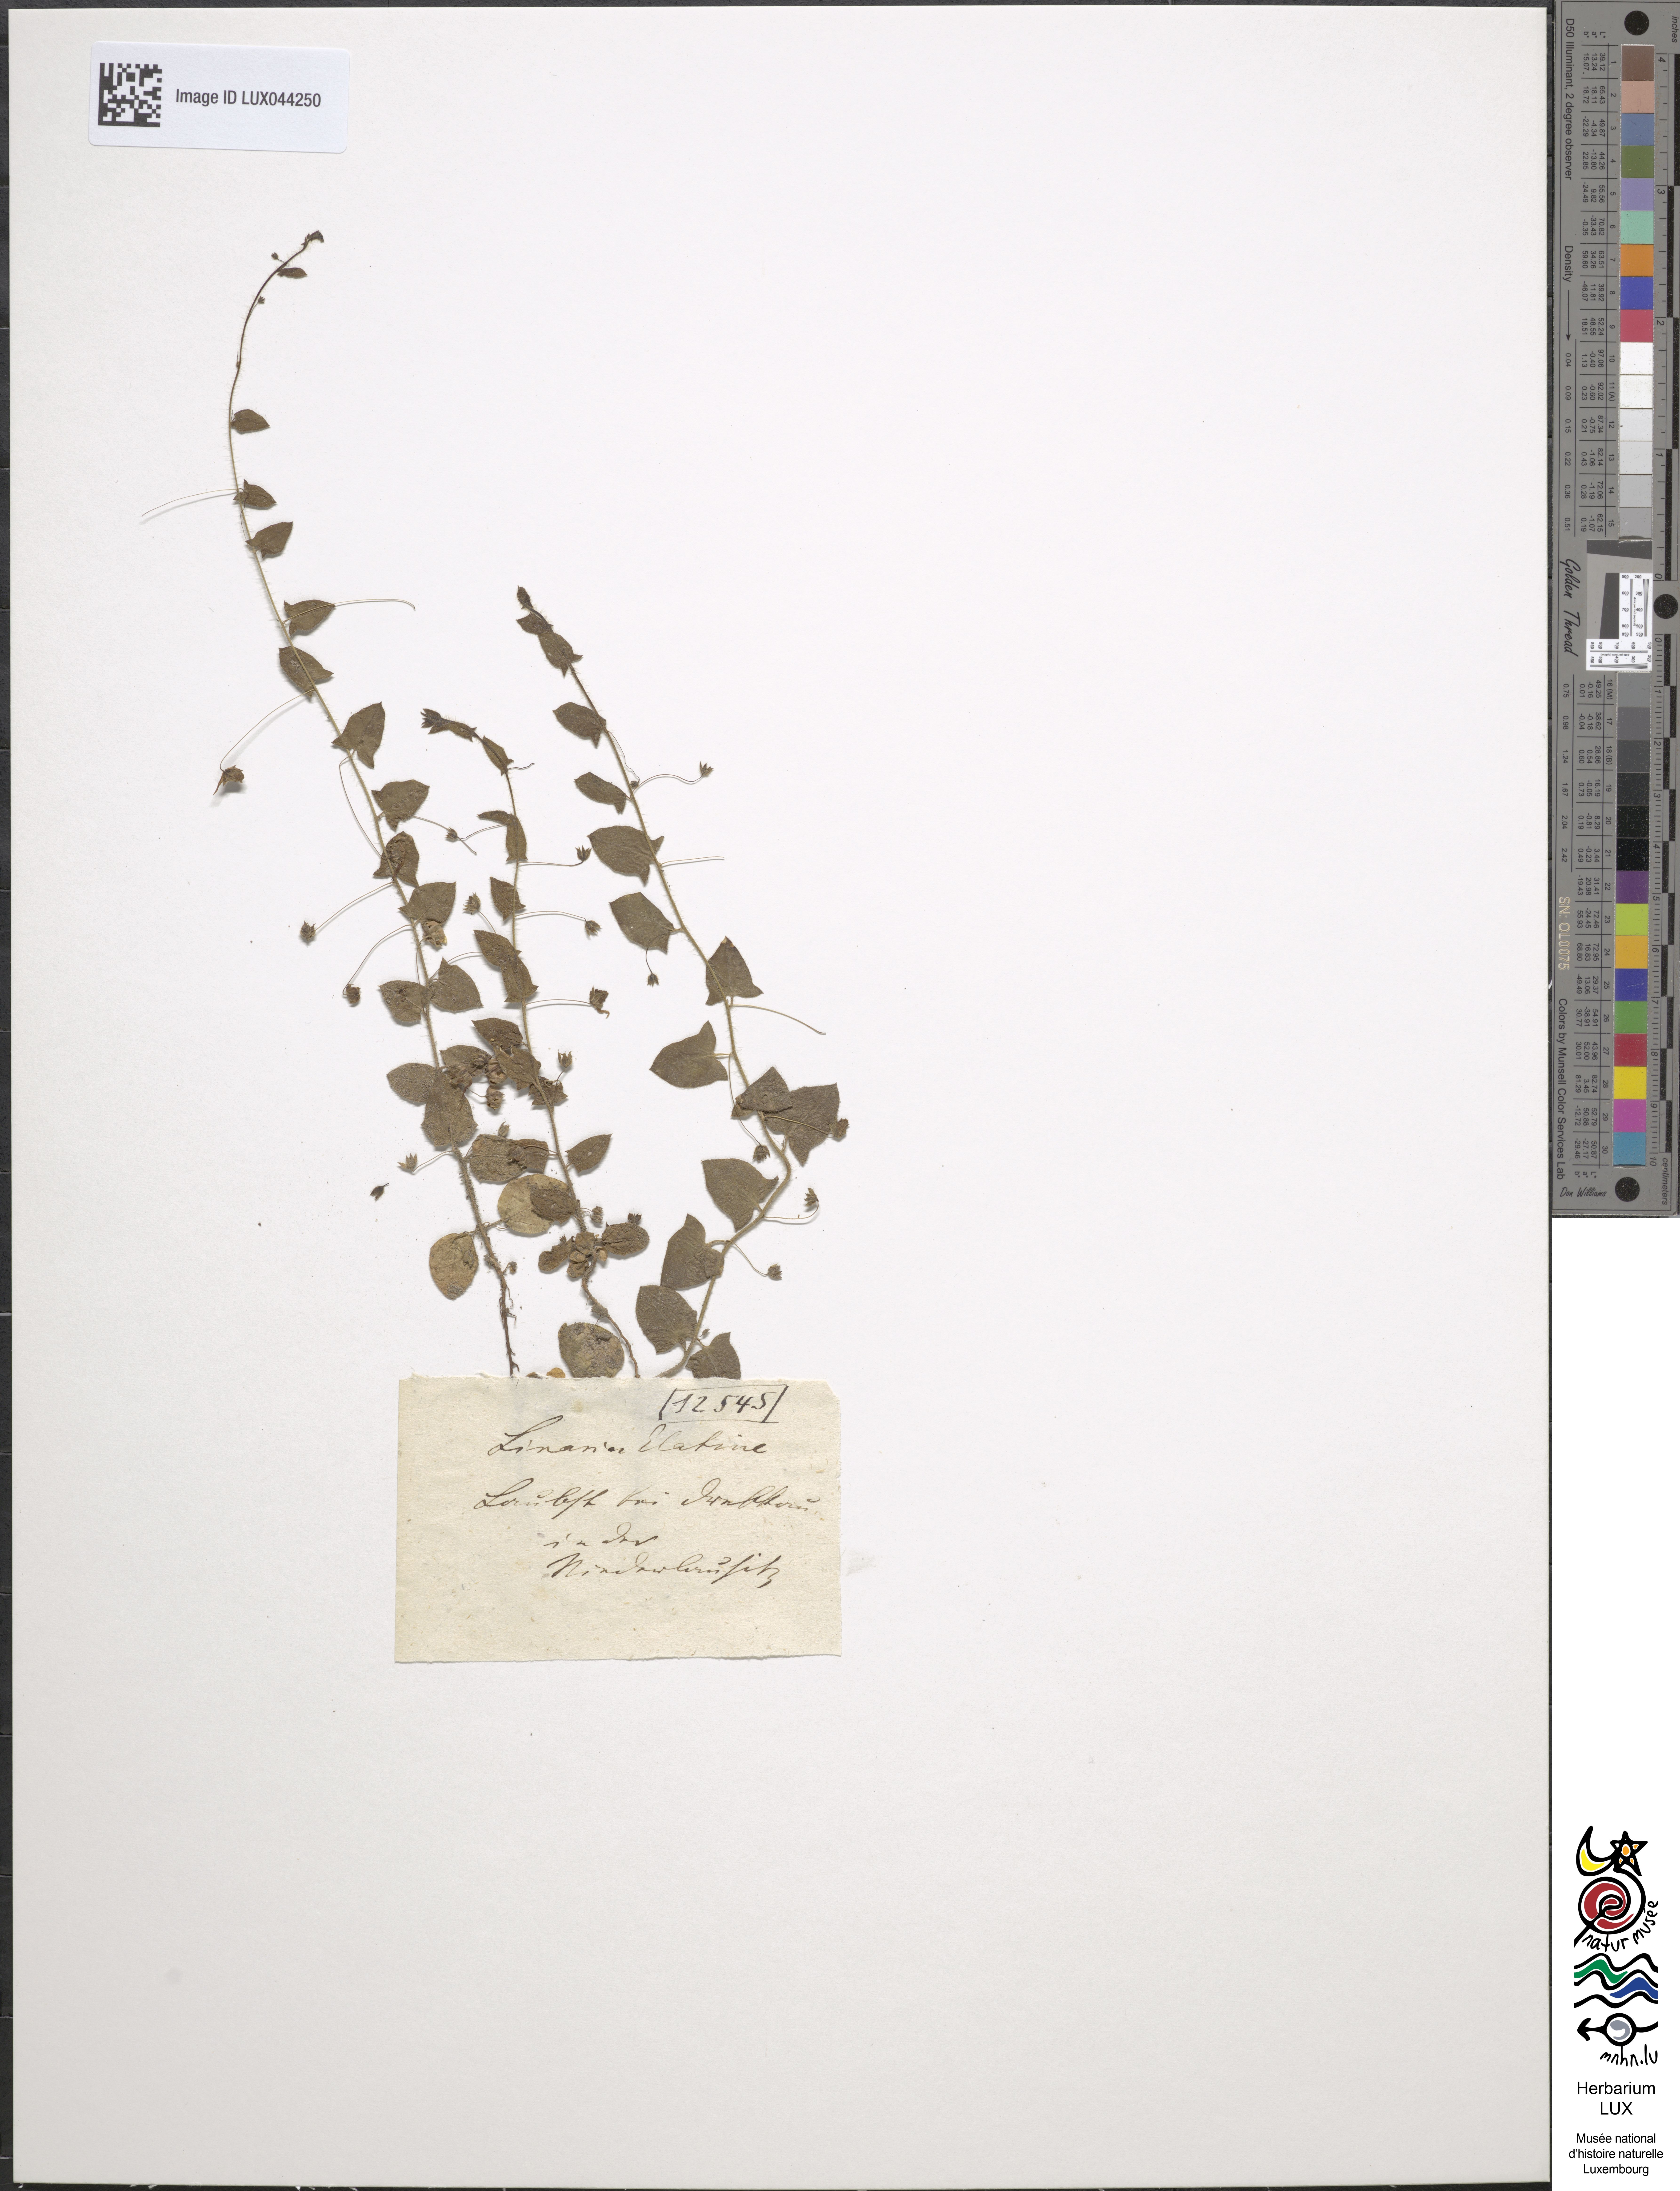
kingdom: Plantae
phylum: Tracheophyta
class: Magnoliopsida
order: Lamiales
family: Plantaginaceae
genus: Kickxia
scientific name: Kickxia elatine
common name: Sharp-leaved fluellen
